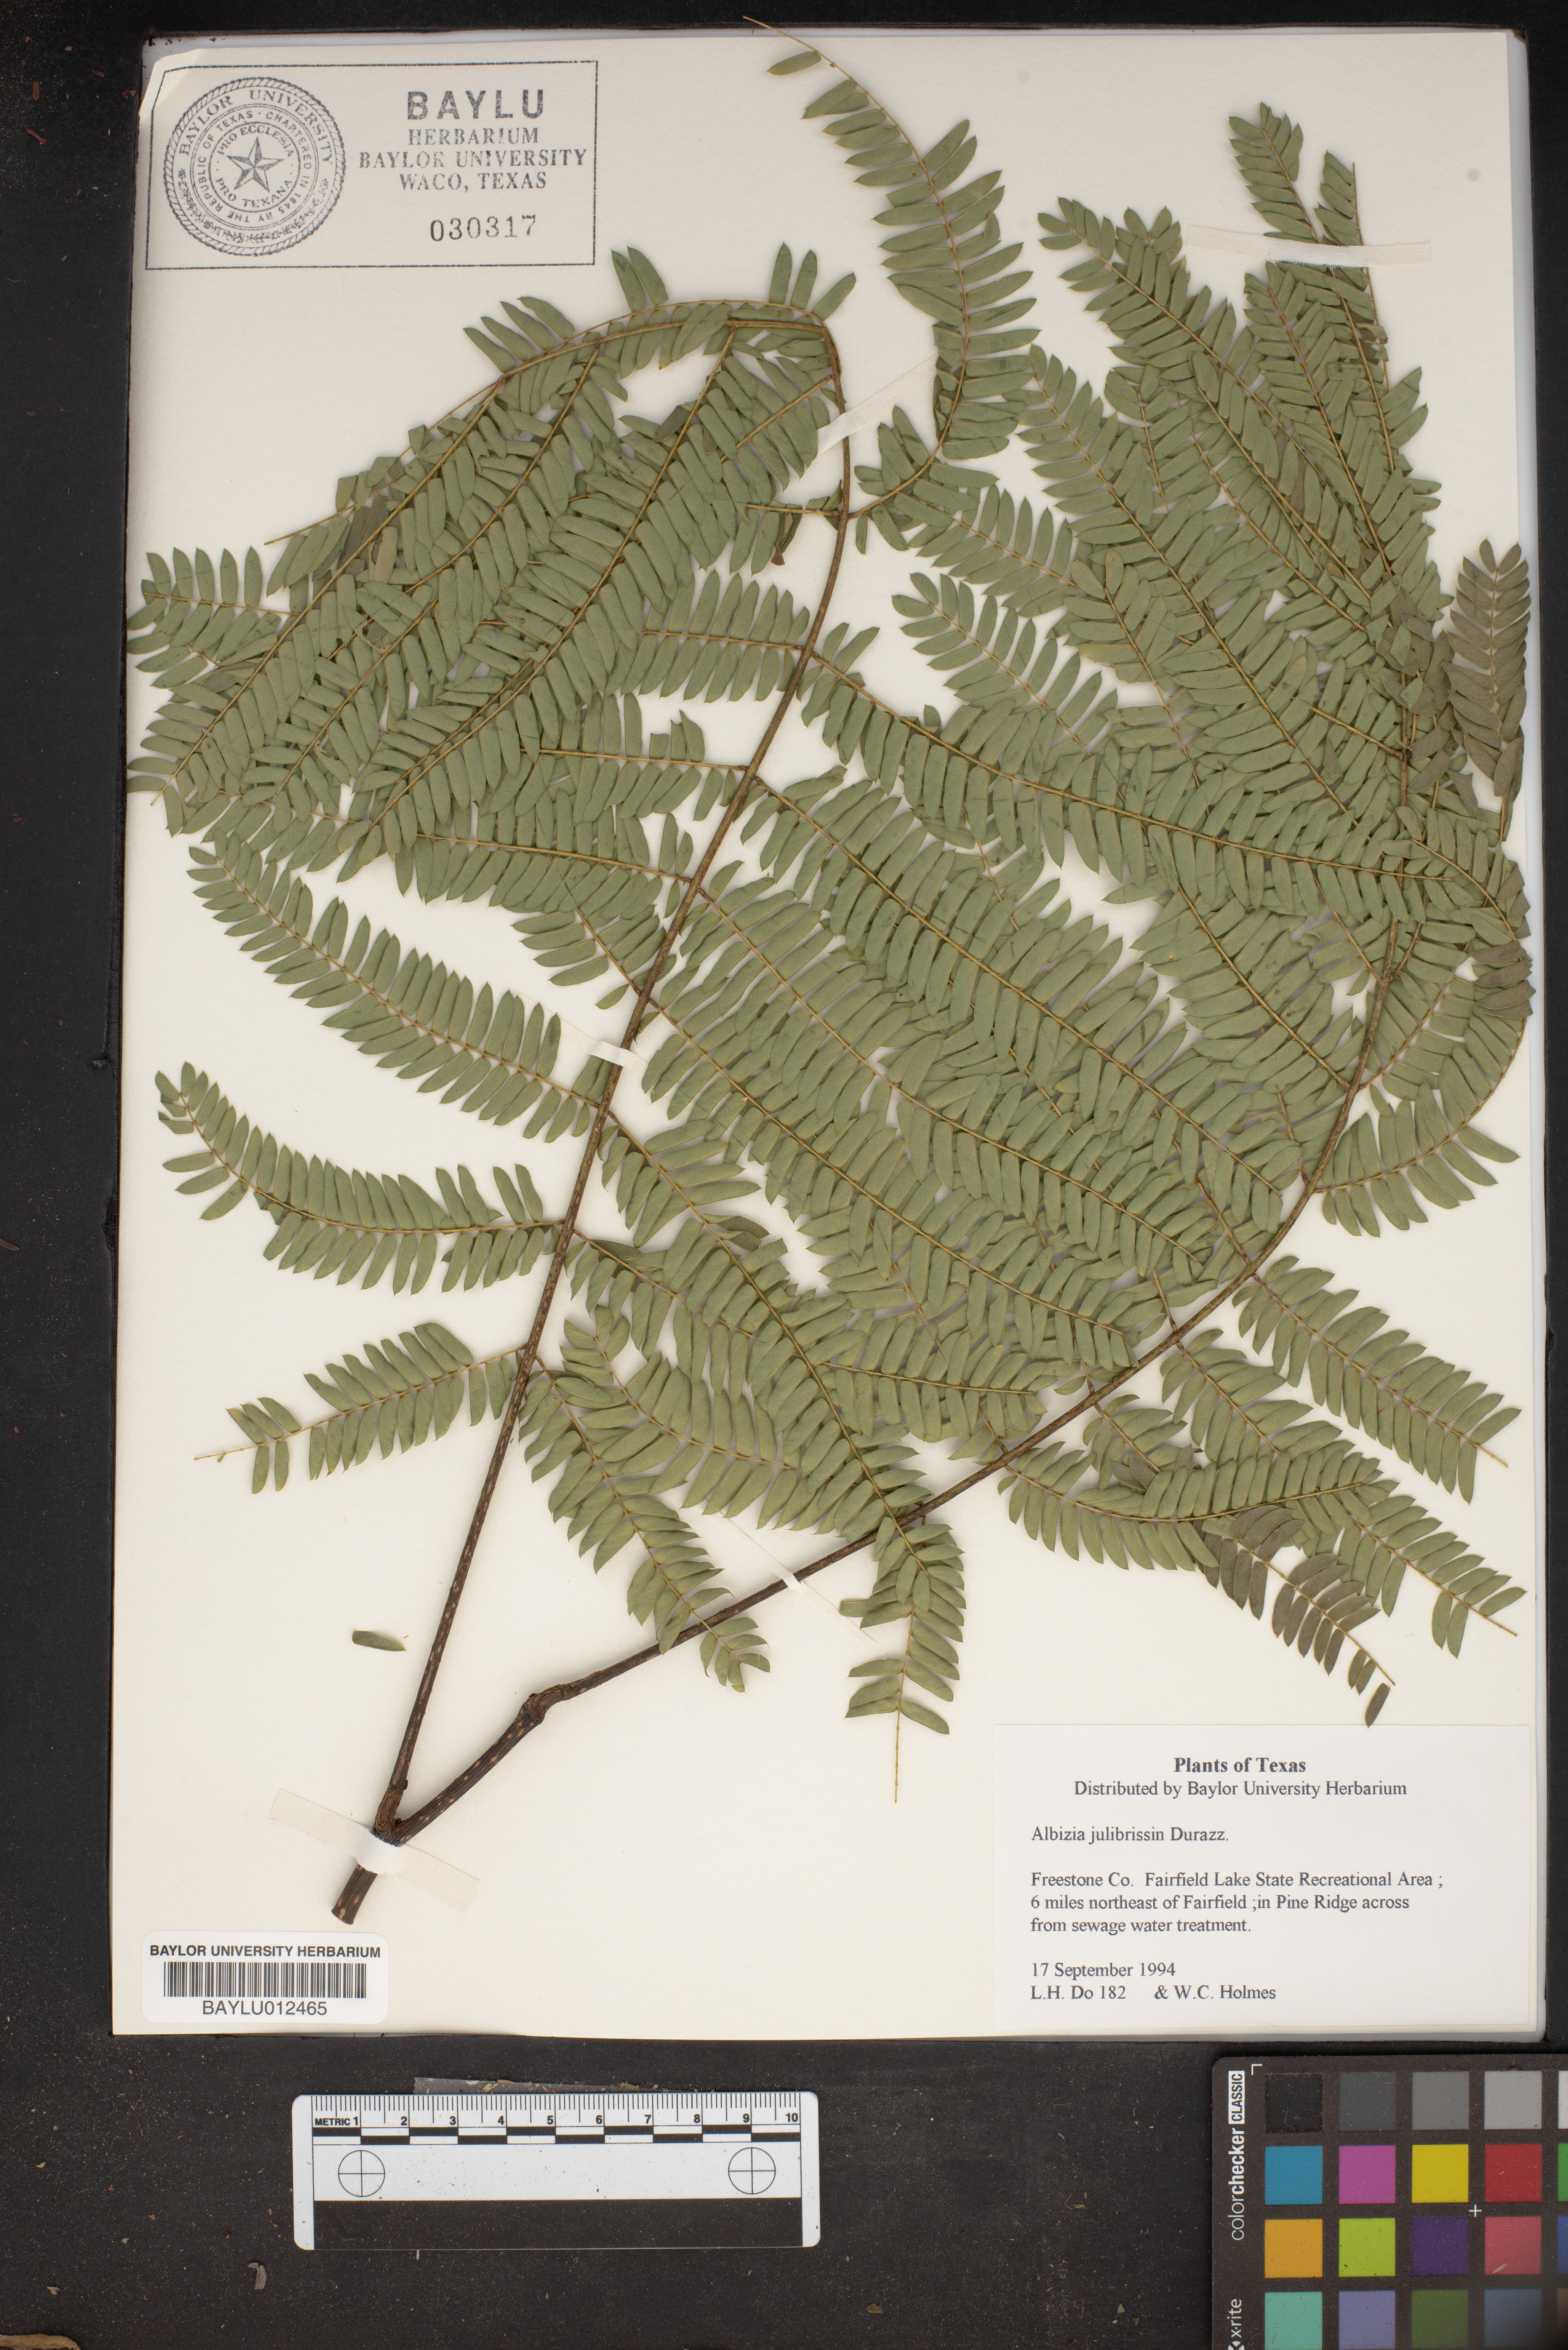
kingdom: Plantae
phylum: Tracheophyta
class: Magnoliopsida
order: Fabales
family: Fabaceae
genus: Albizia
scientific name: Albizia julibrissin
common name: Silktree
